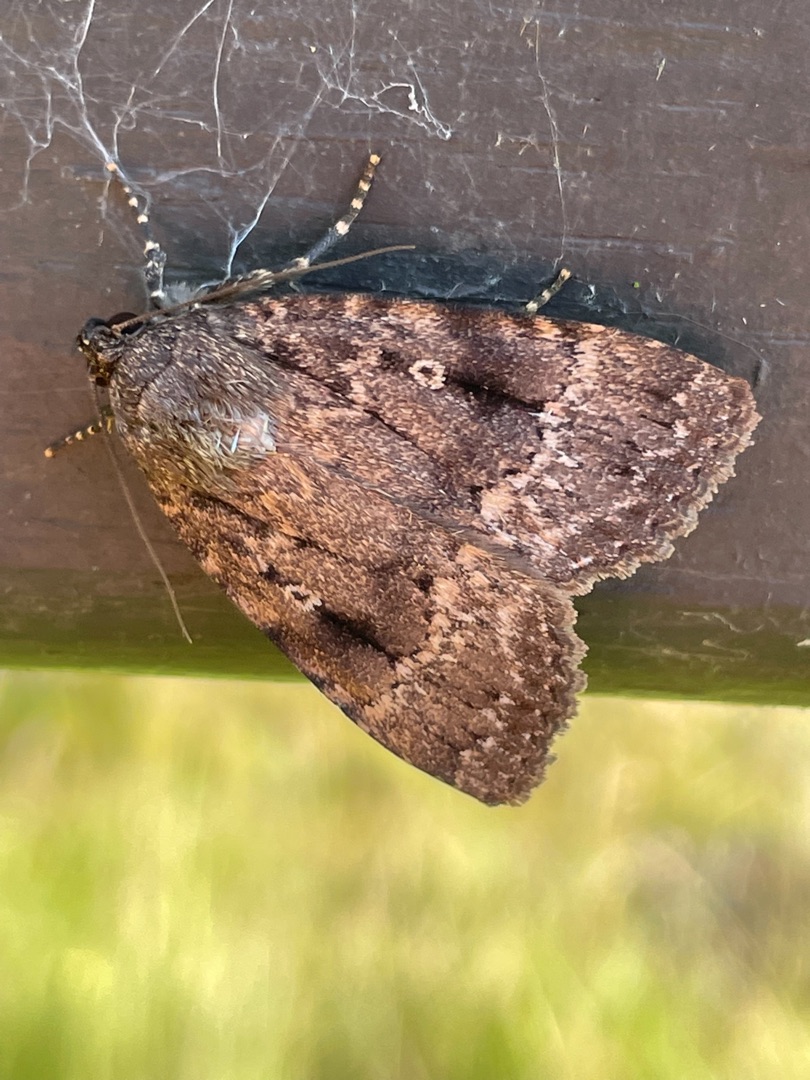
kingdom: Animalia
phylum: Arthropoda
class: Insecta
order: Lepidoptera
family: Noctuidae
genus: Amphipyra
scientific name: Amphipyra pyramidea
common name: Pyramideugle
